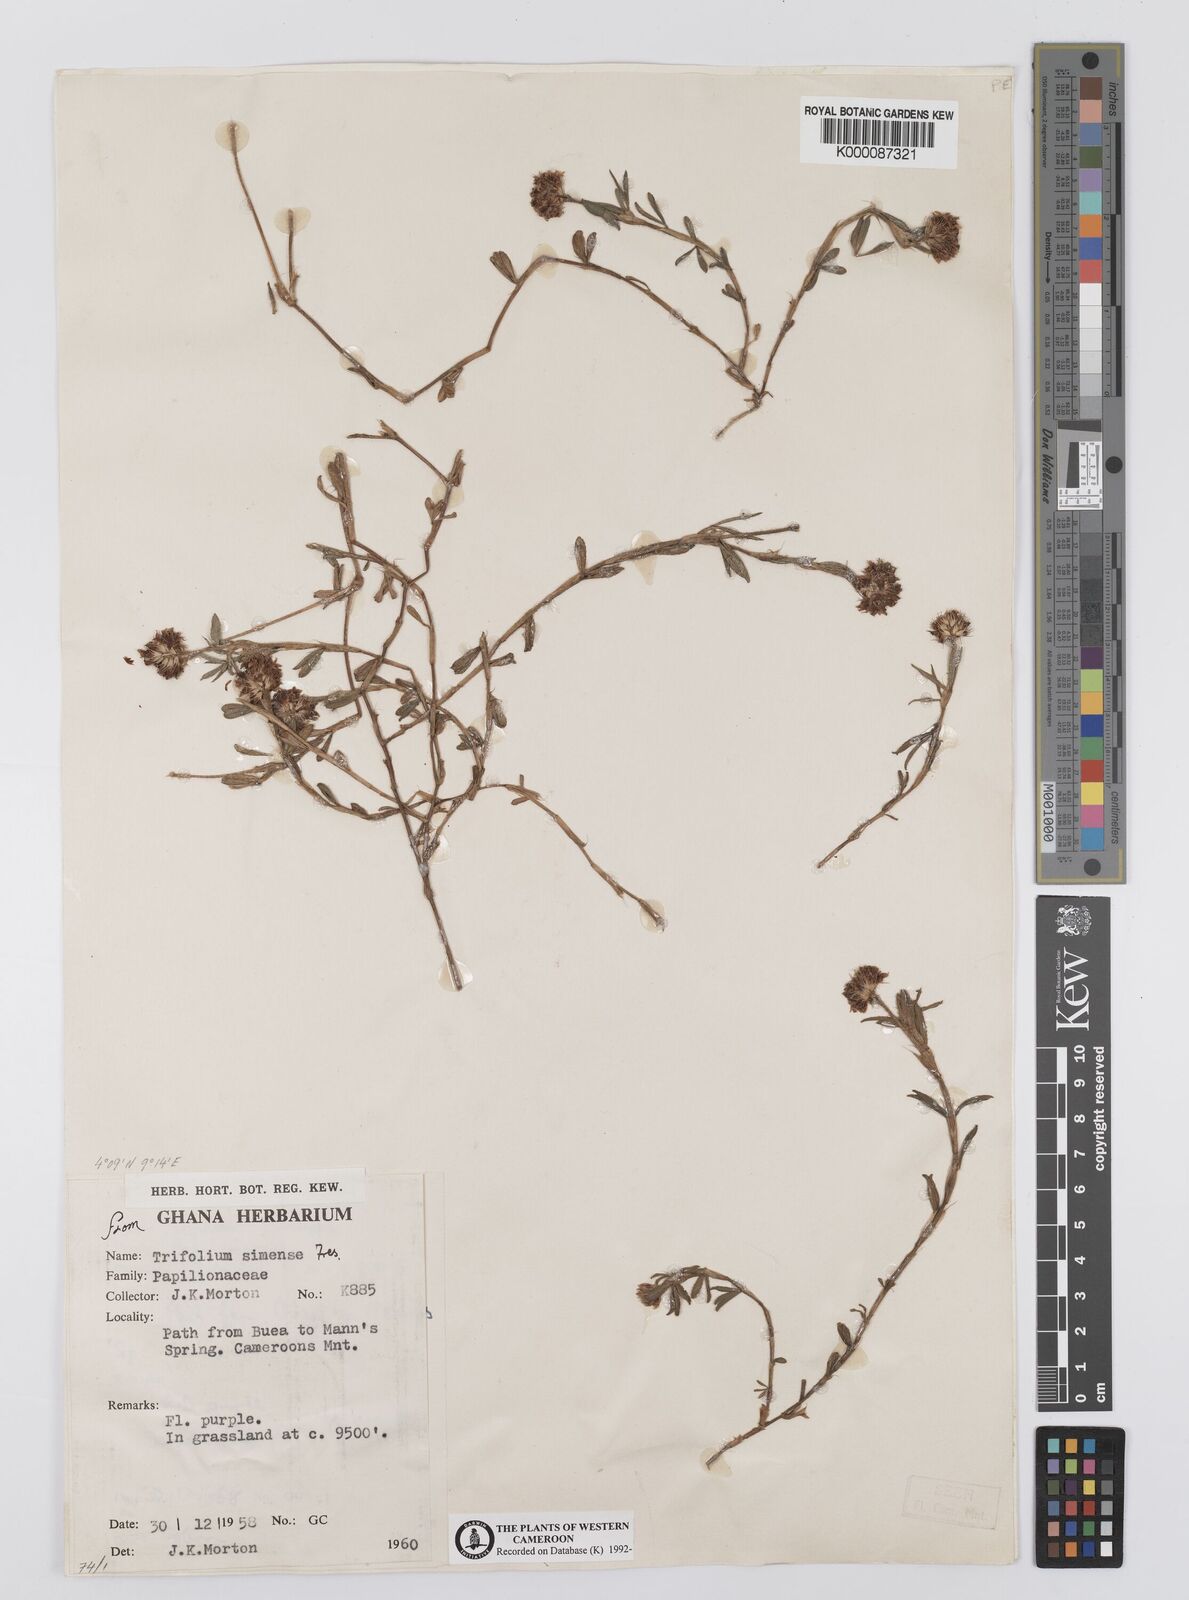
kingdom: Plantae
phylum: Tracheophyta
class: Magnoliopsida
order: Fabales
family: Fabaceae
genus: Trifolium
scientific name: Trifolium simense
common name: Simen clover
